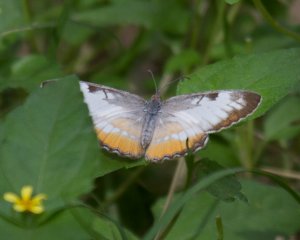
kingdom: Animalia
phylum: Arthropoda
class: Insecta
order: Lepidoptera
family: Nymphalidae
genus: Mestra
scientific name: Mestra amymone
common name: Common Mestra
